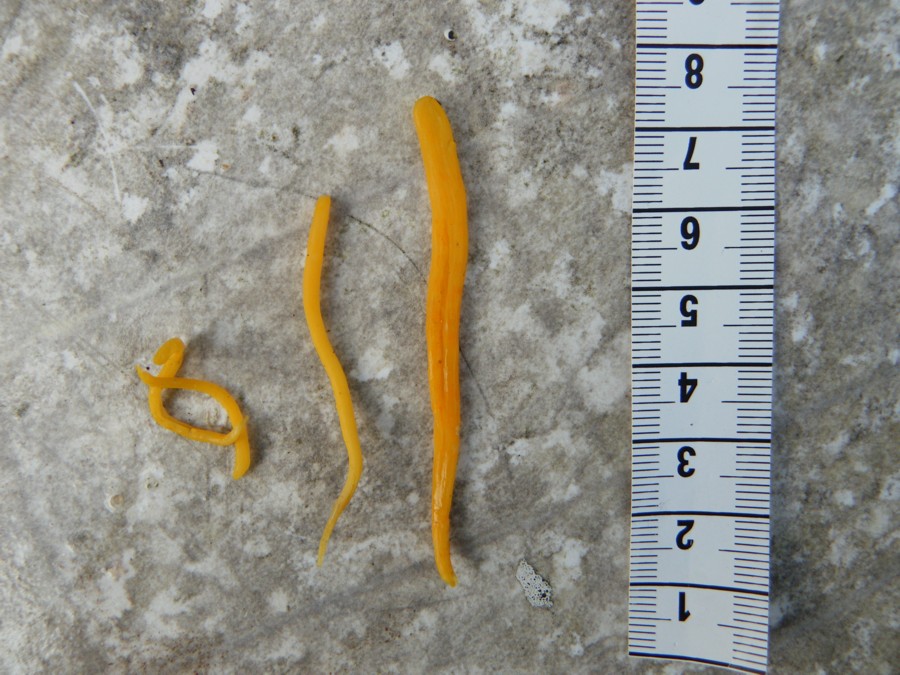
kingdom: Fungi
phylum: Basidiomycota
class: Agaricomycetes
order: Agaricales
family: Clavariaceae
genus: Clavulinopsis
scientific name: Clavulinopsis helvola
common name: orangegul køllesvamp
